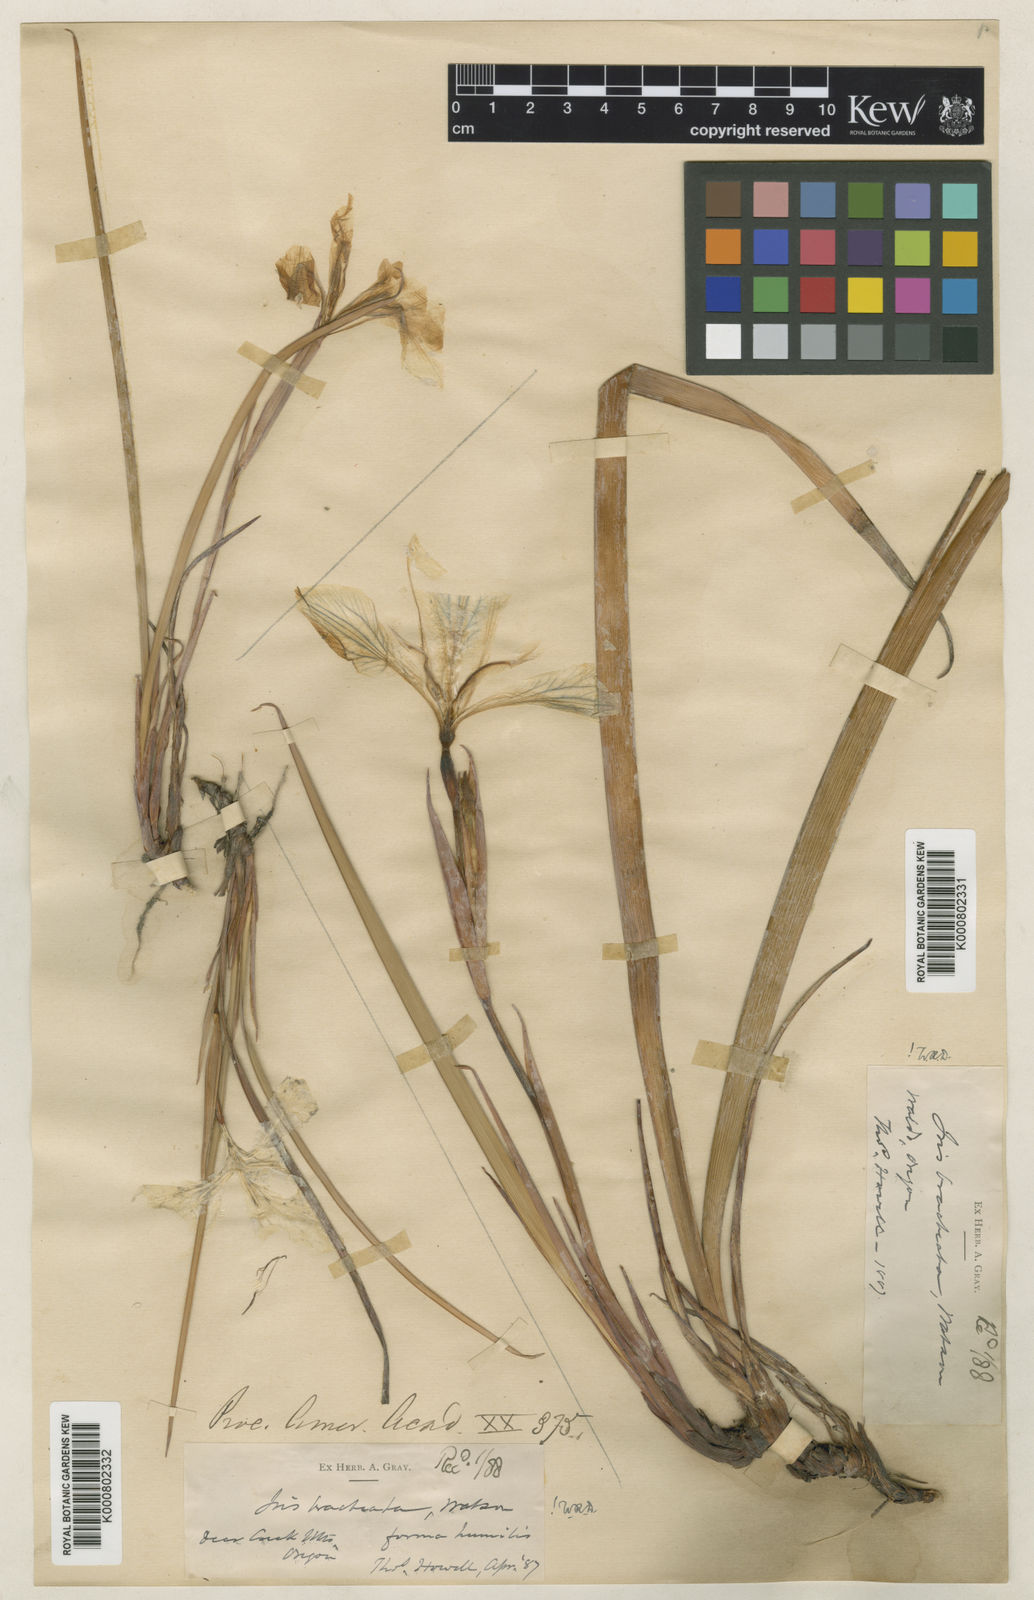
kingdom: Plantae
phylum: Tracheophyta
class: Liliopsida
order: Asparagales
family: Iridaceae
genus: Iris
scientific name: Iris bracteata
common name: Siskiyou iris
